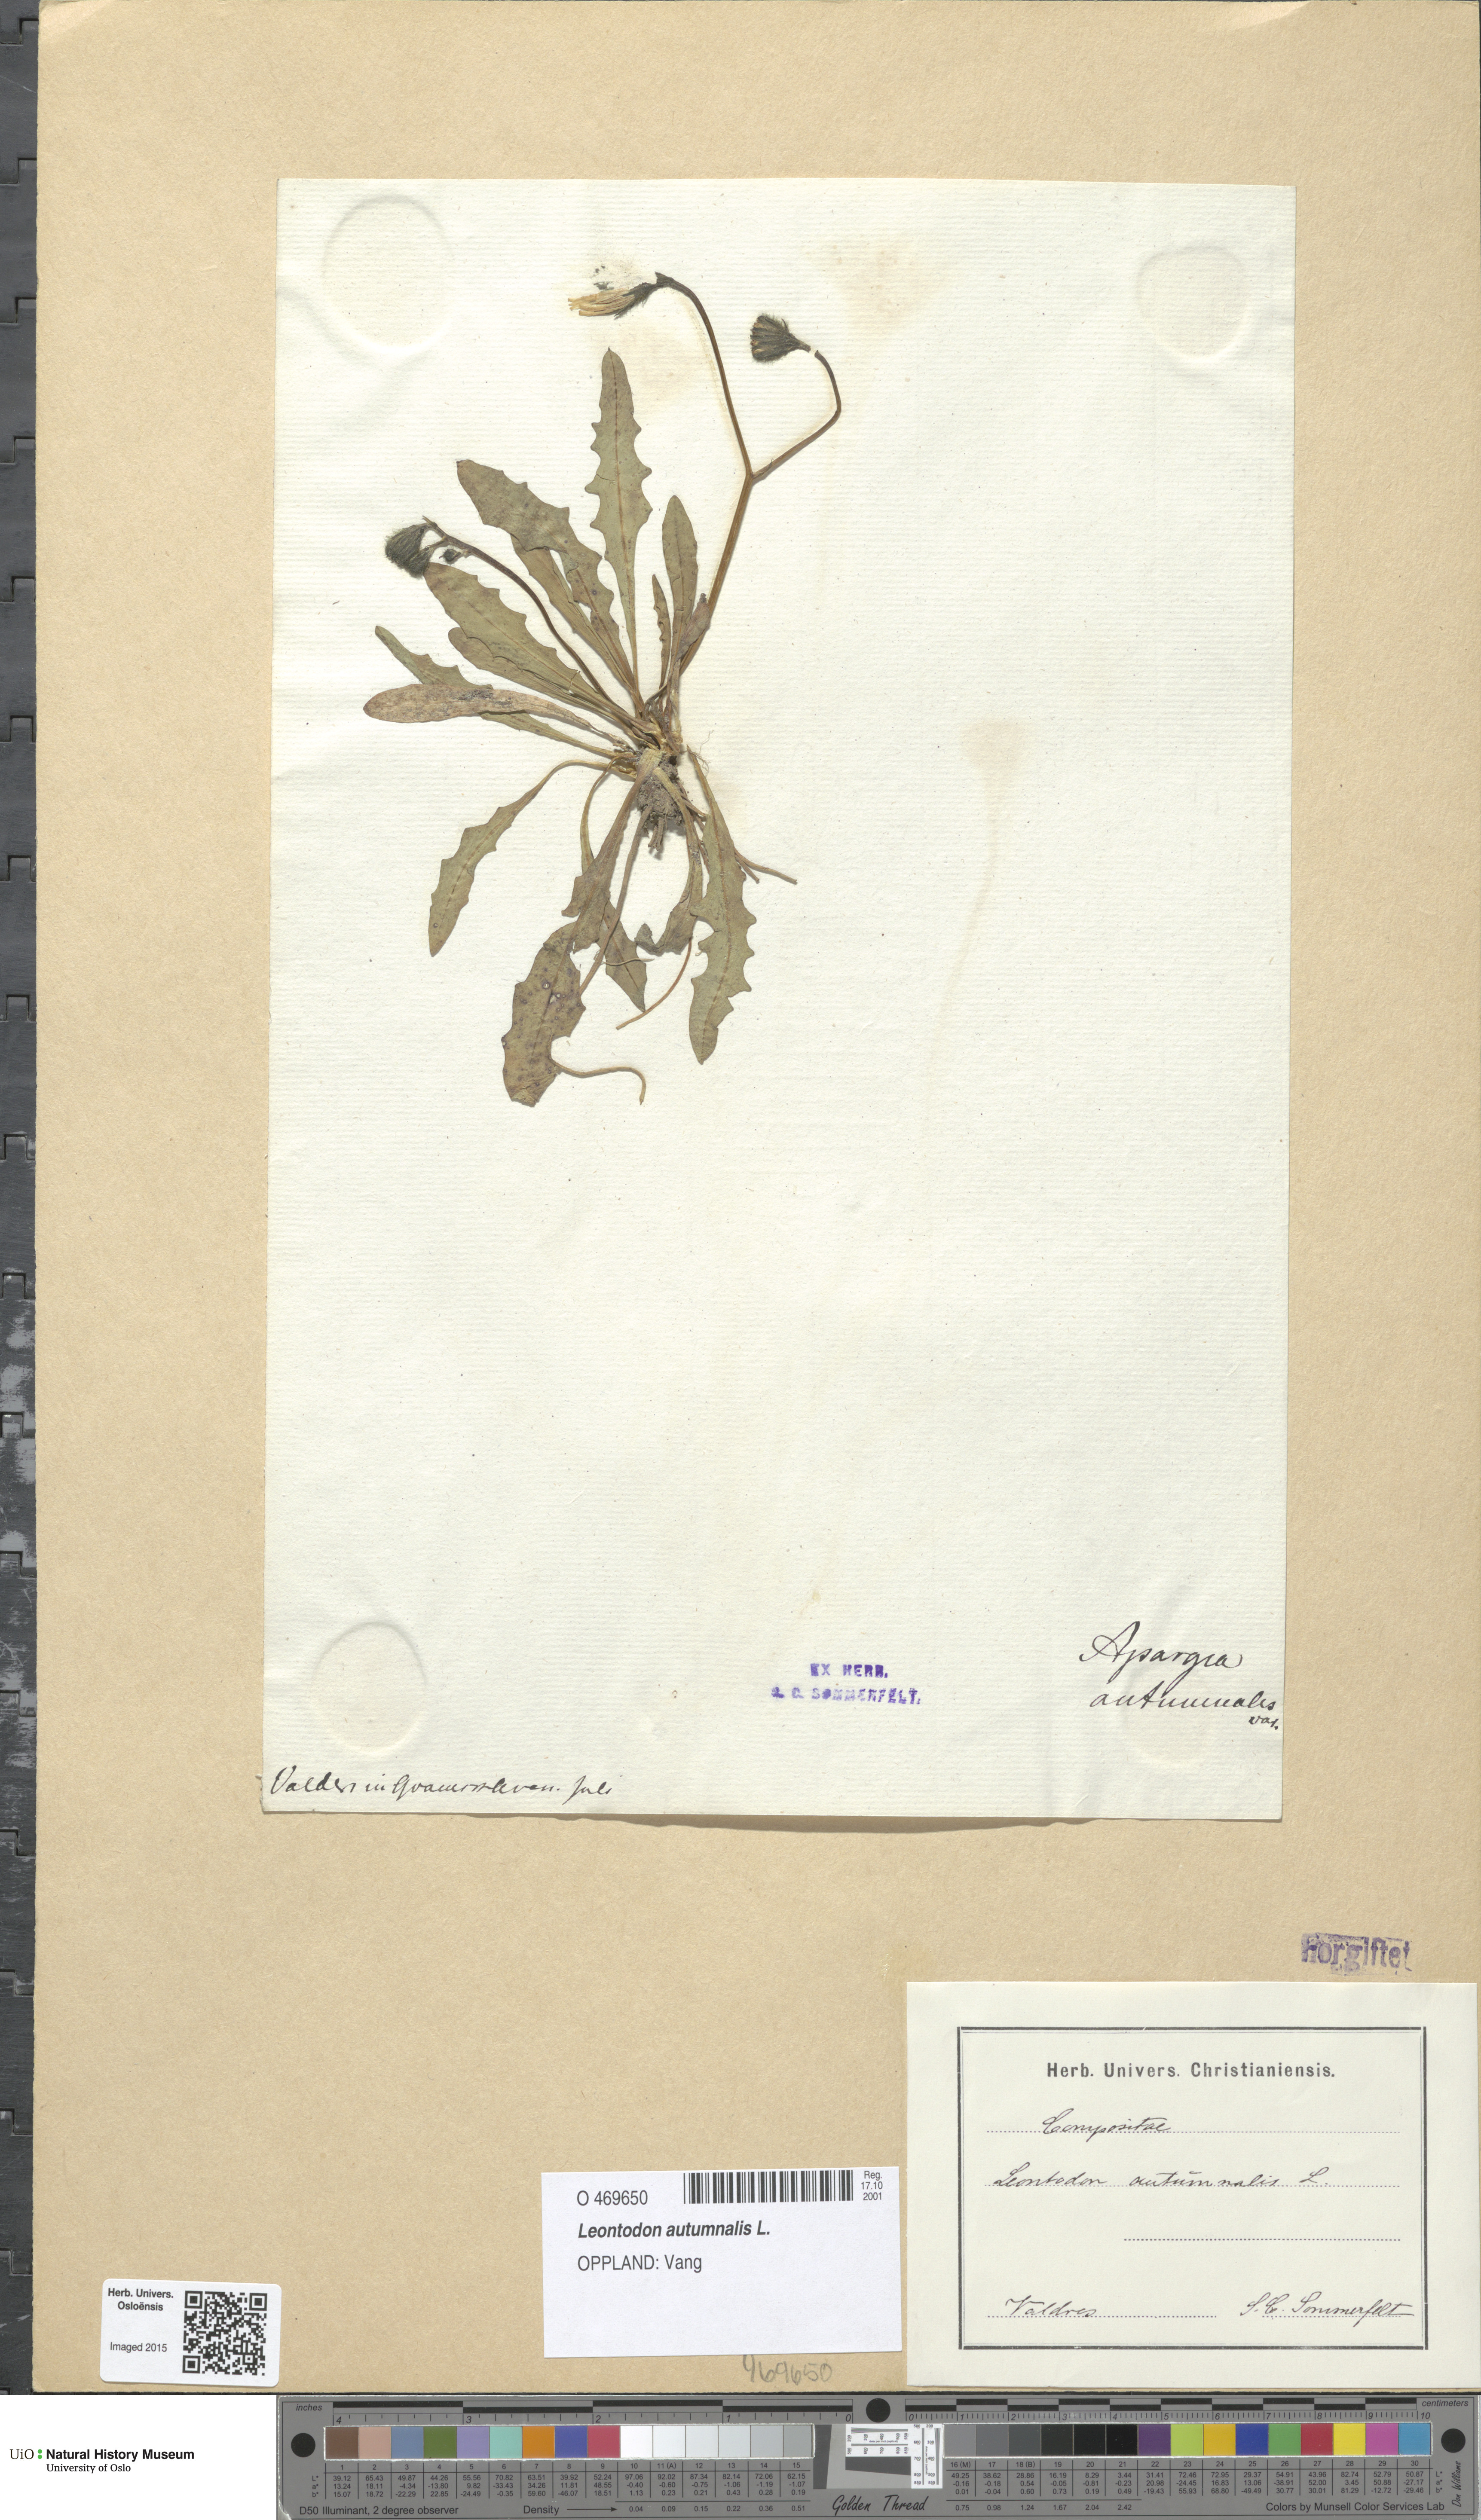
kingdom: Plantae
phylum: Tracheophyta
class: Magnoliopsida
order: Asterales
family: Asteraceae
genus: Scorzoneroides
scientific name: Scorzoneroides autumnalis
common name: Autumn hawkbit
